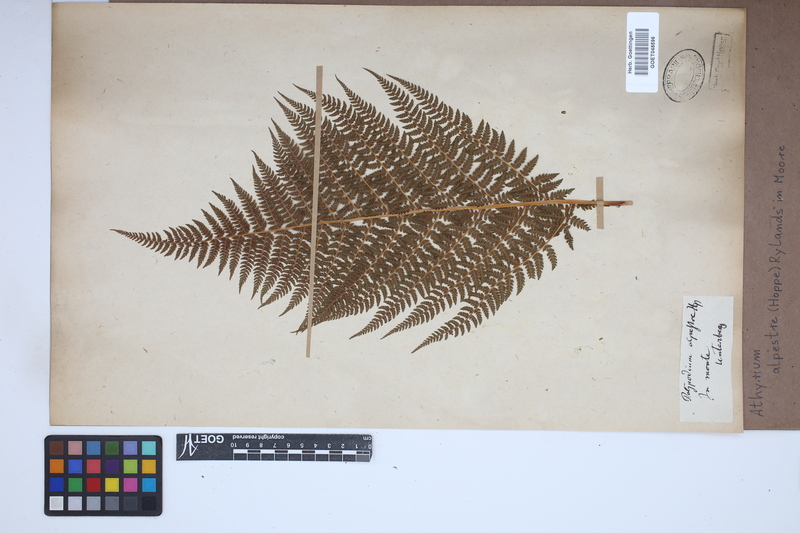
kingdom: Plantae
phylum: Tracheophyta
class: Polypodiopsida
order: Polypodiales
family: Athyriaceae
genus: Pseudathyrium
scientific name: Pseudathyrium alpestre
